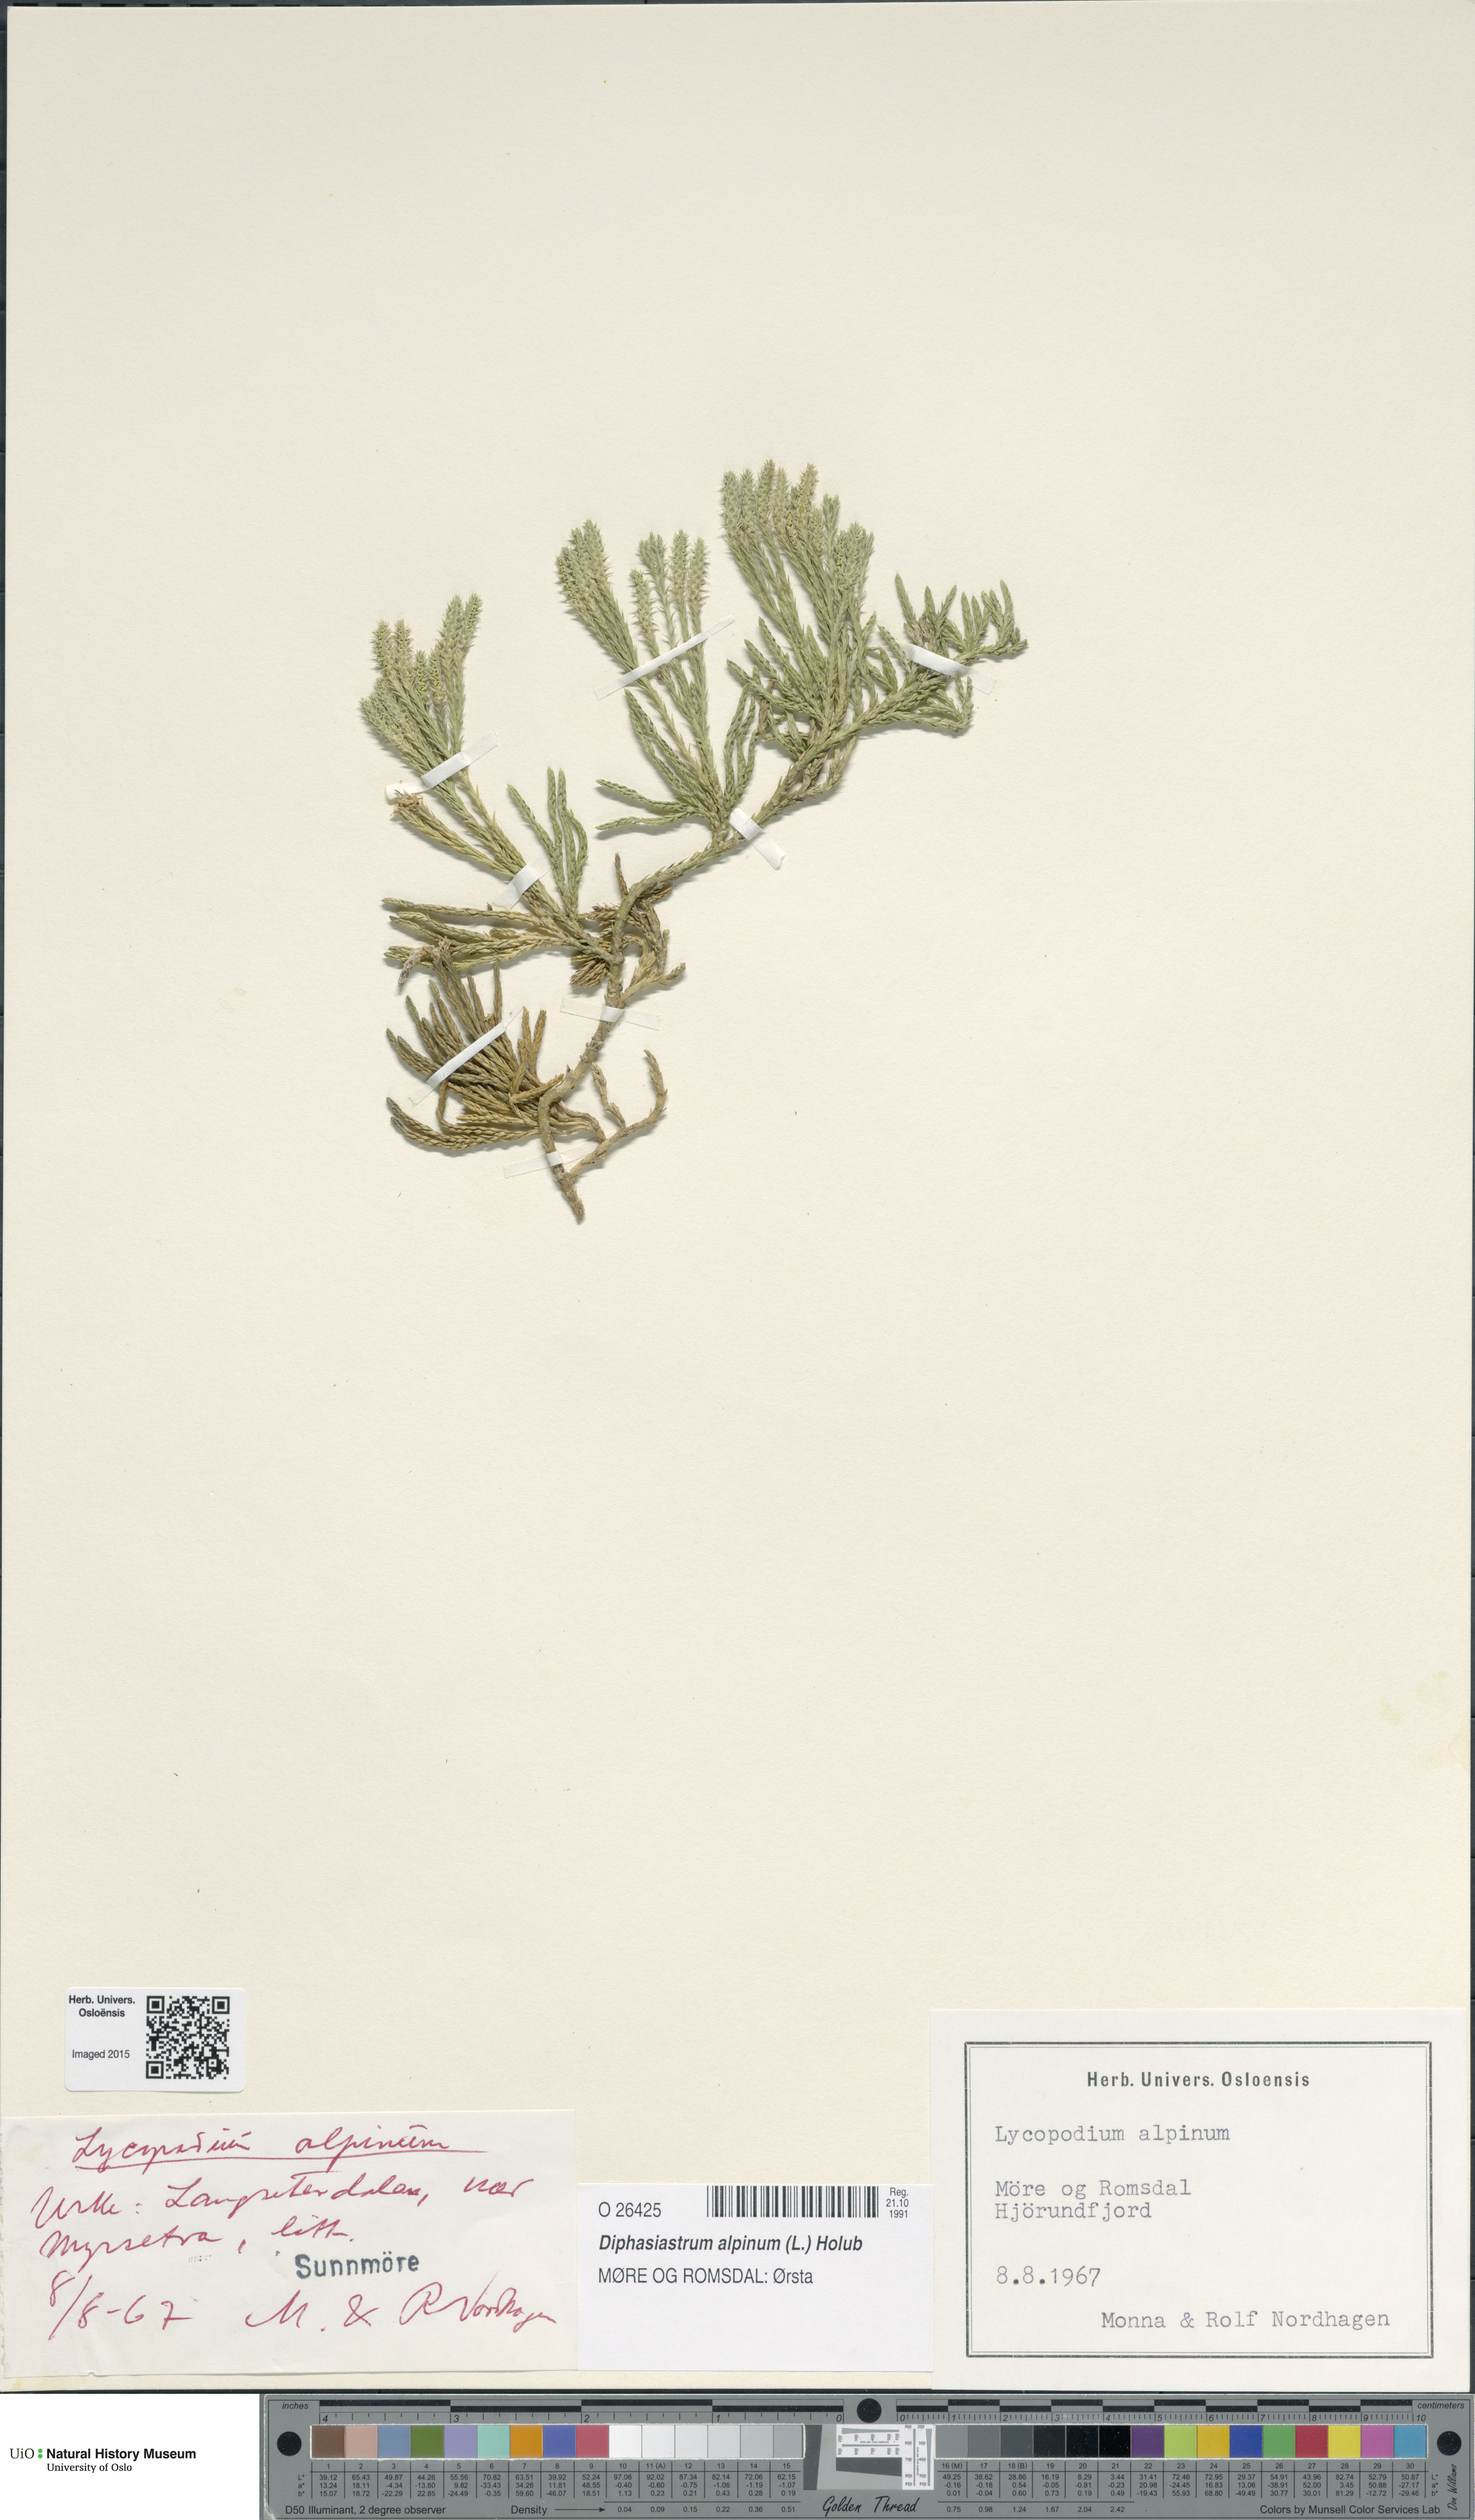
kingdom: Plantae
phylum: Tracheophyta
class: Lycopodiopsida
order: Lycopodiales
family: Lycopodiaceae
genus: Diphasiastrum
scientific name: Diphasiastrum alpinum
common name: Alpine clubmoss
